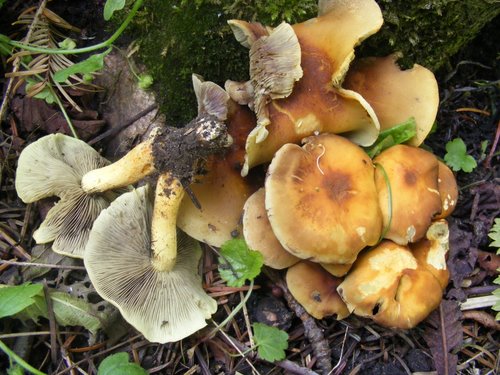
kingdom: Fungi
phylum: Basidiomycota
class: Agaricomycetes
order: Agaricales
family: Strophariaceae
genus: Hypholoma
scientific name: Hypholoma fasciculare
